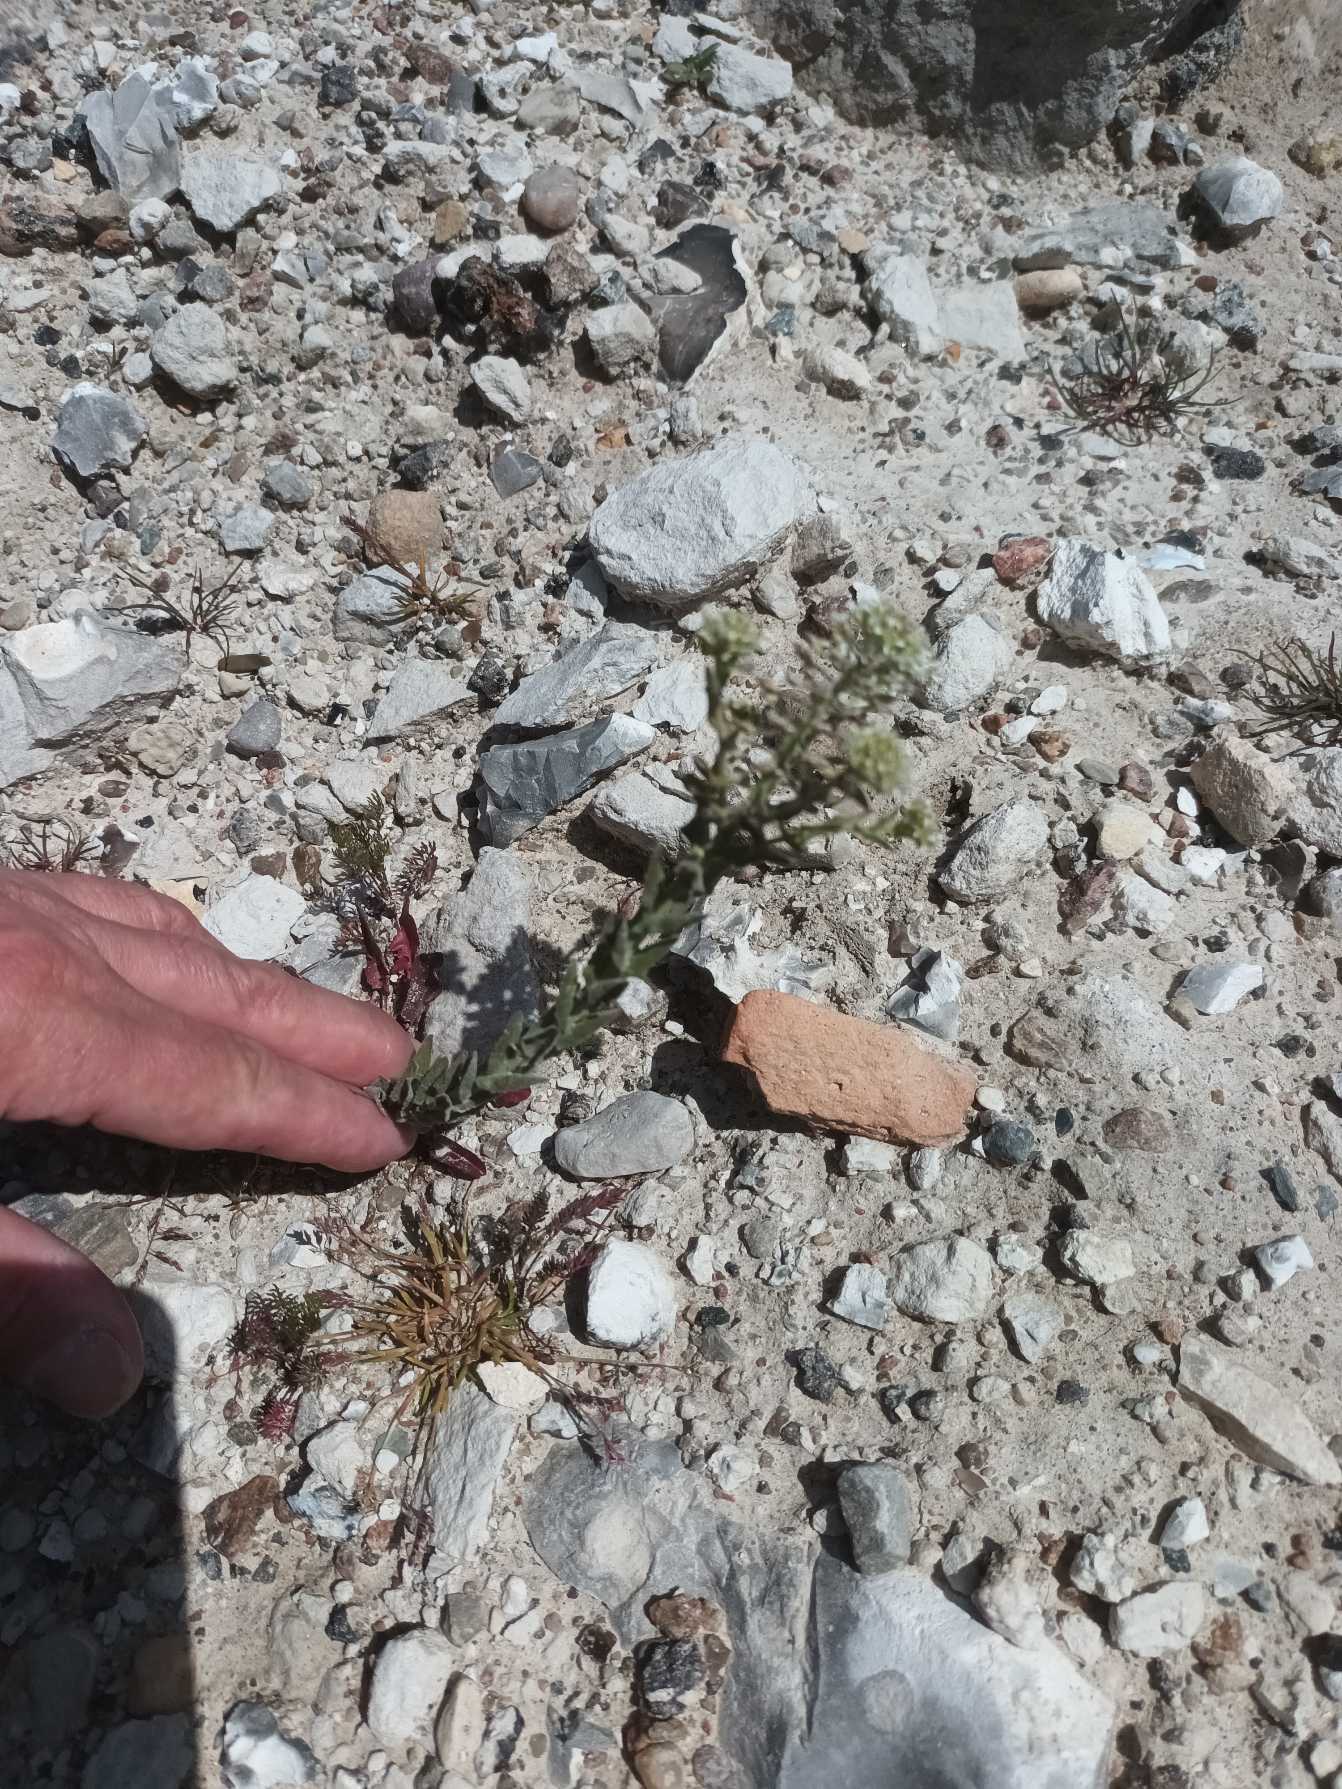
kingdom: Plantae
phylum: Tracheophyta
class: Magnoliopsida
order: Brassicales
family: Brassicaceae
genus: Lepidium
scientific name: Lepidium campestre
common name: Salomons lysestage
